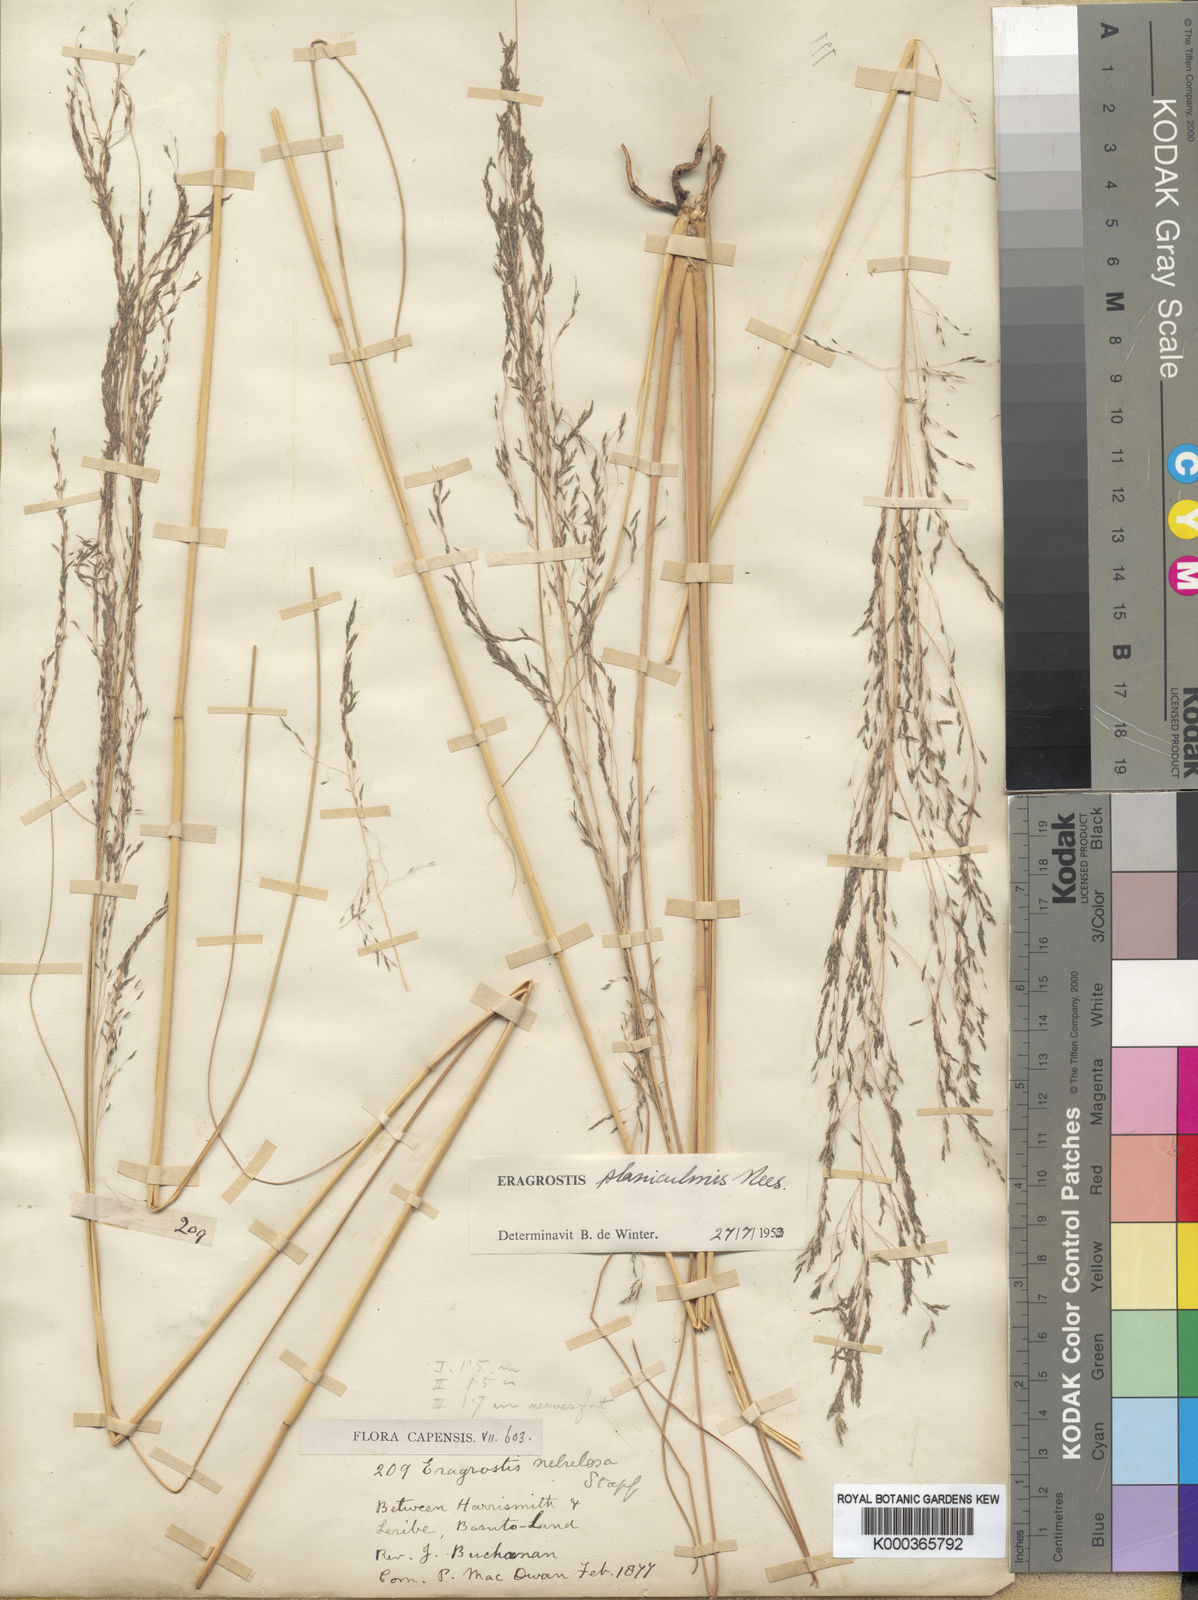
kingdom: Plantae
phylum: Tracheophyta
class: Liliopsida
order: Poales
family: Poaceae
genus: Eragrostis
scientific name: Eragrostis planiculmis
